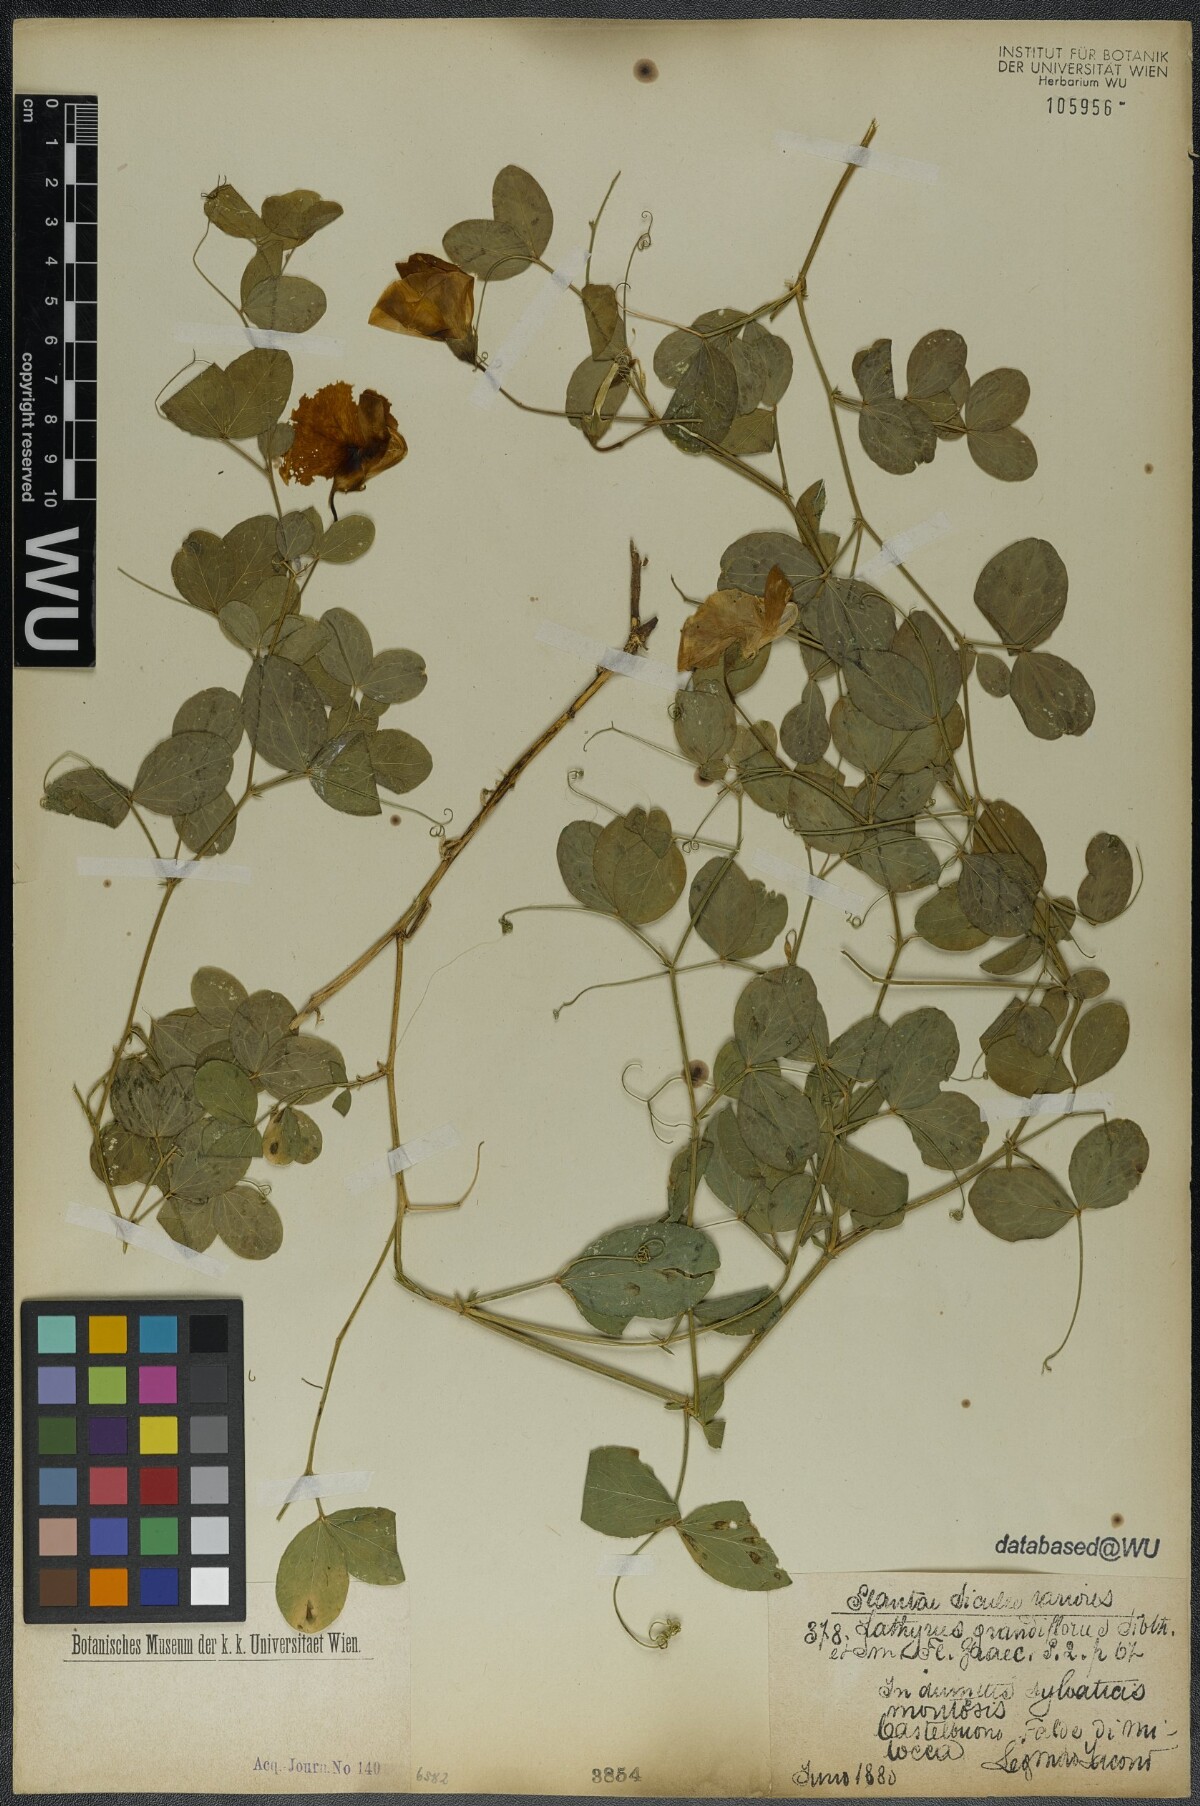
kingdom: Plantae
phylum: Tracheophyta
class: Magnoliopsida
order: Fabales
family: Fabaceae
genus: Lathyrus
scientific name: Lathyrus grandiflorus
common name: Two-flowered everlasting-pea
